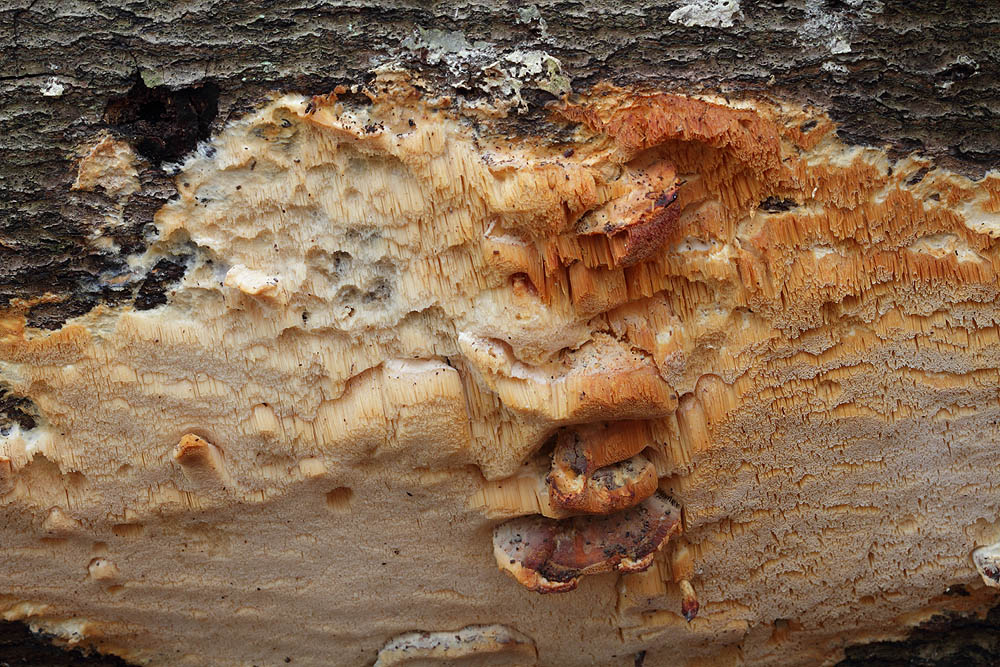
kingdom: Fungi
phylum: Basidiomycota
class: Agaricomycetes
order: Polyporales
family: Steccherinaceae
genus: Antrodiella
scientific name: Antrodiella mentschulensis
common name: abrikosporesvamp
